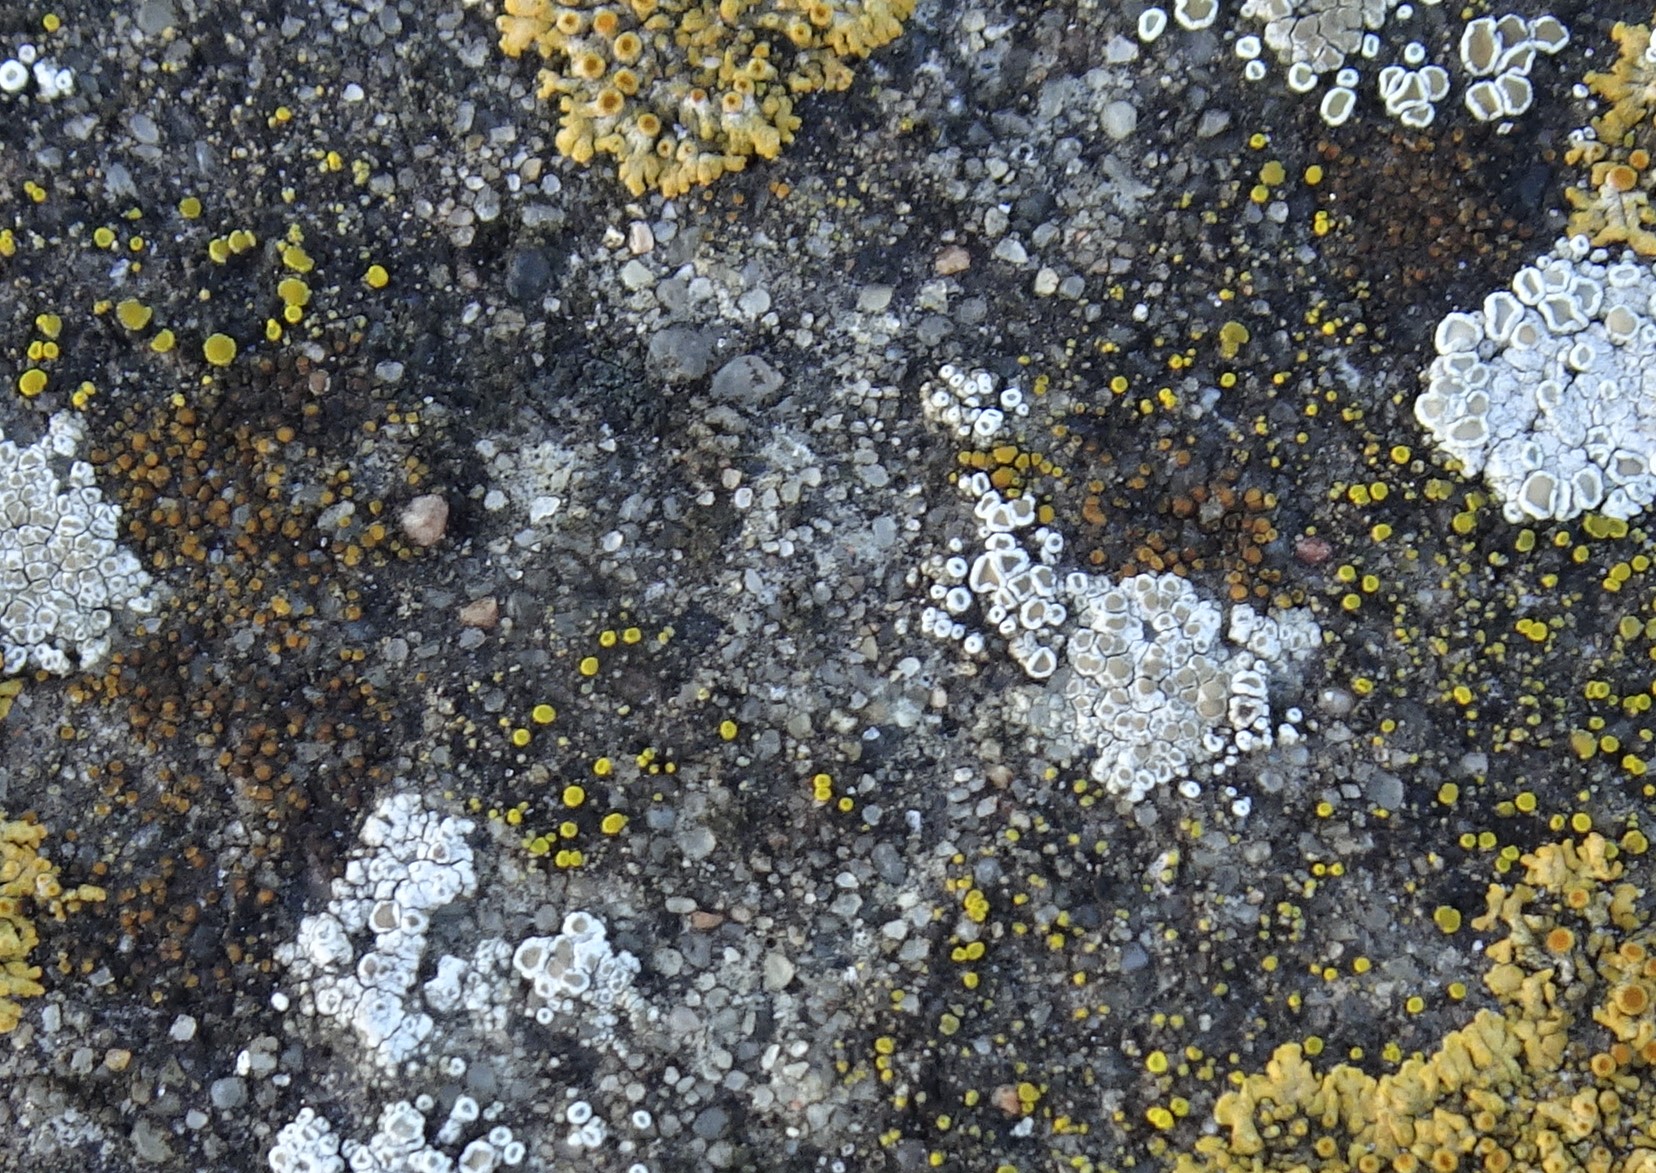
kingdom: Fungi
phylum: Ascomycota
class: Candelariomycetes
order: Candelariales
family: Candelariaceae
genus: Candelariella
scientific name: Candelariella aurella
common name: liden æggeblommelav
